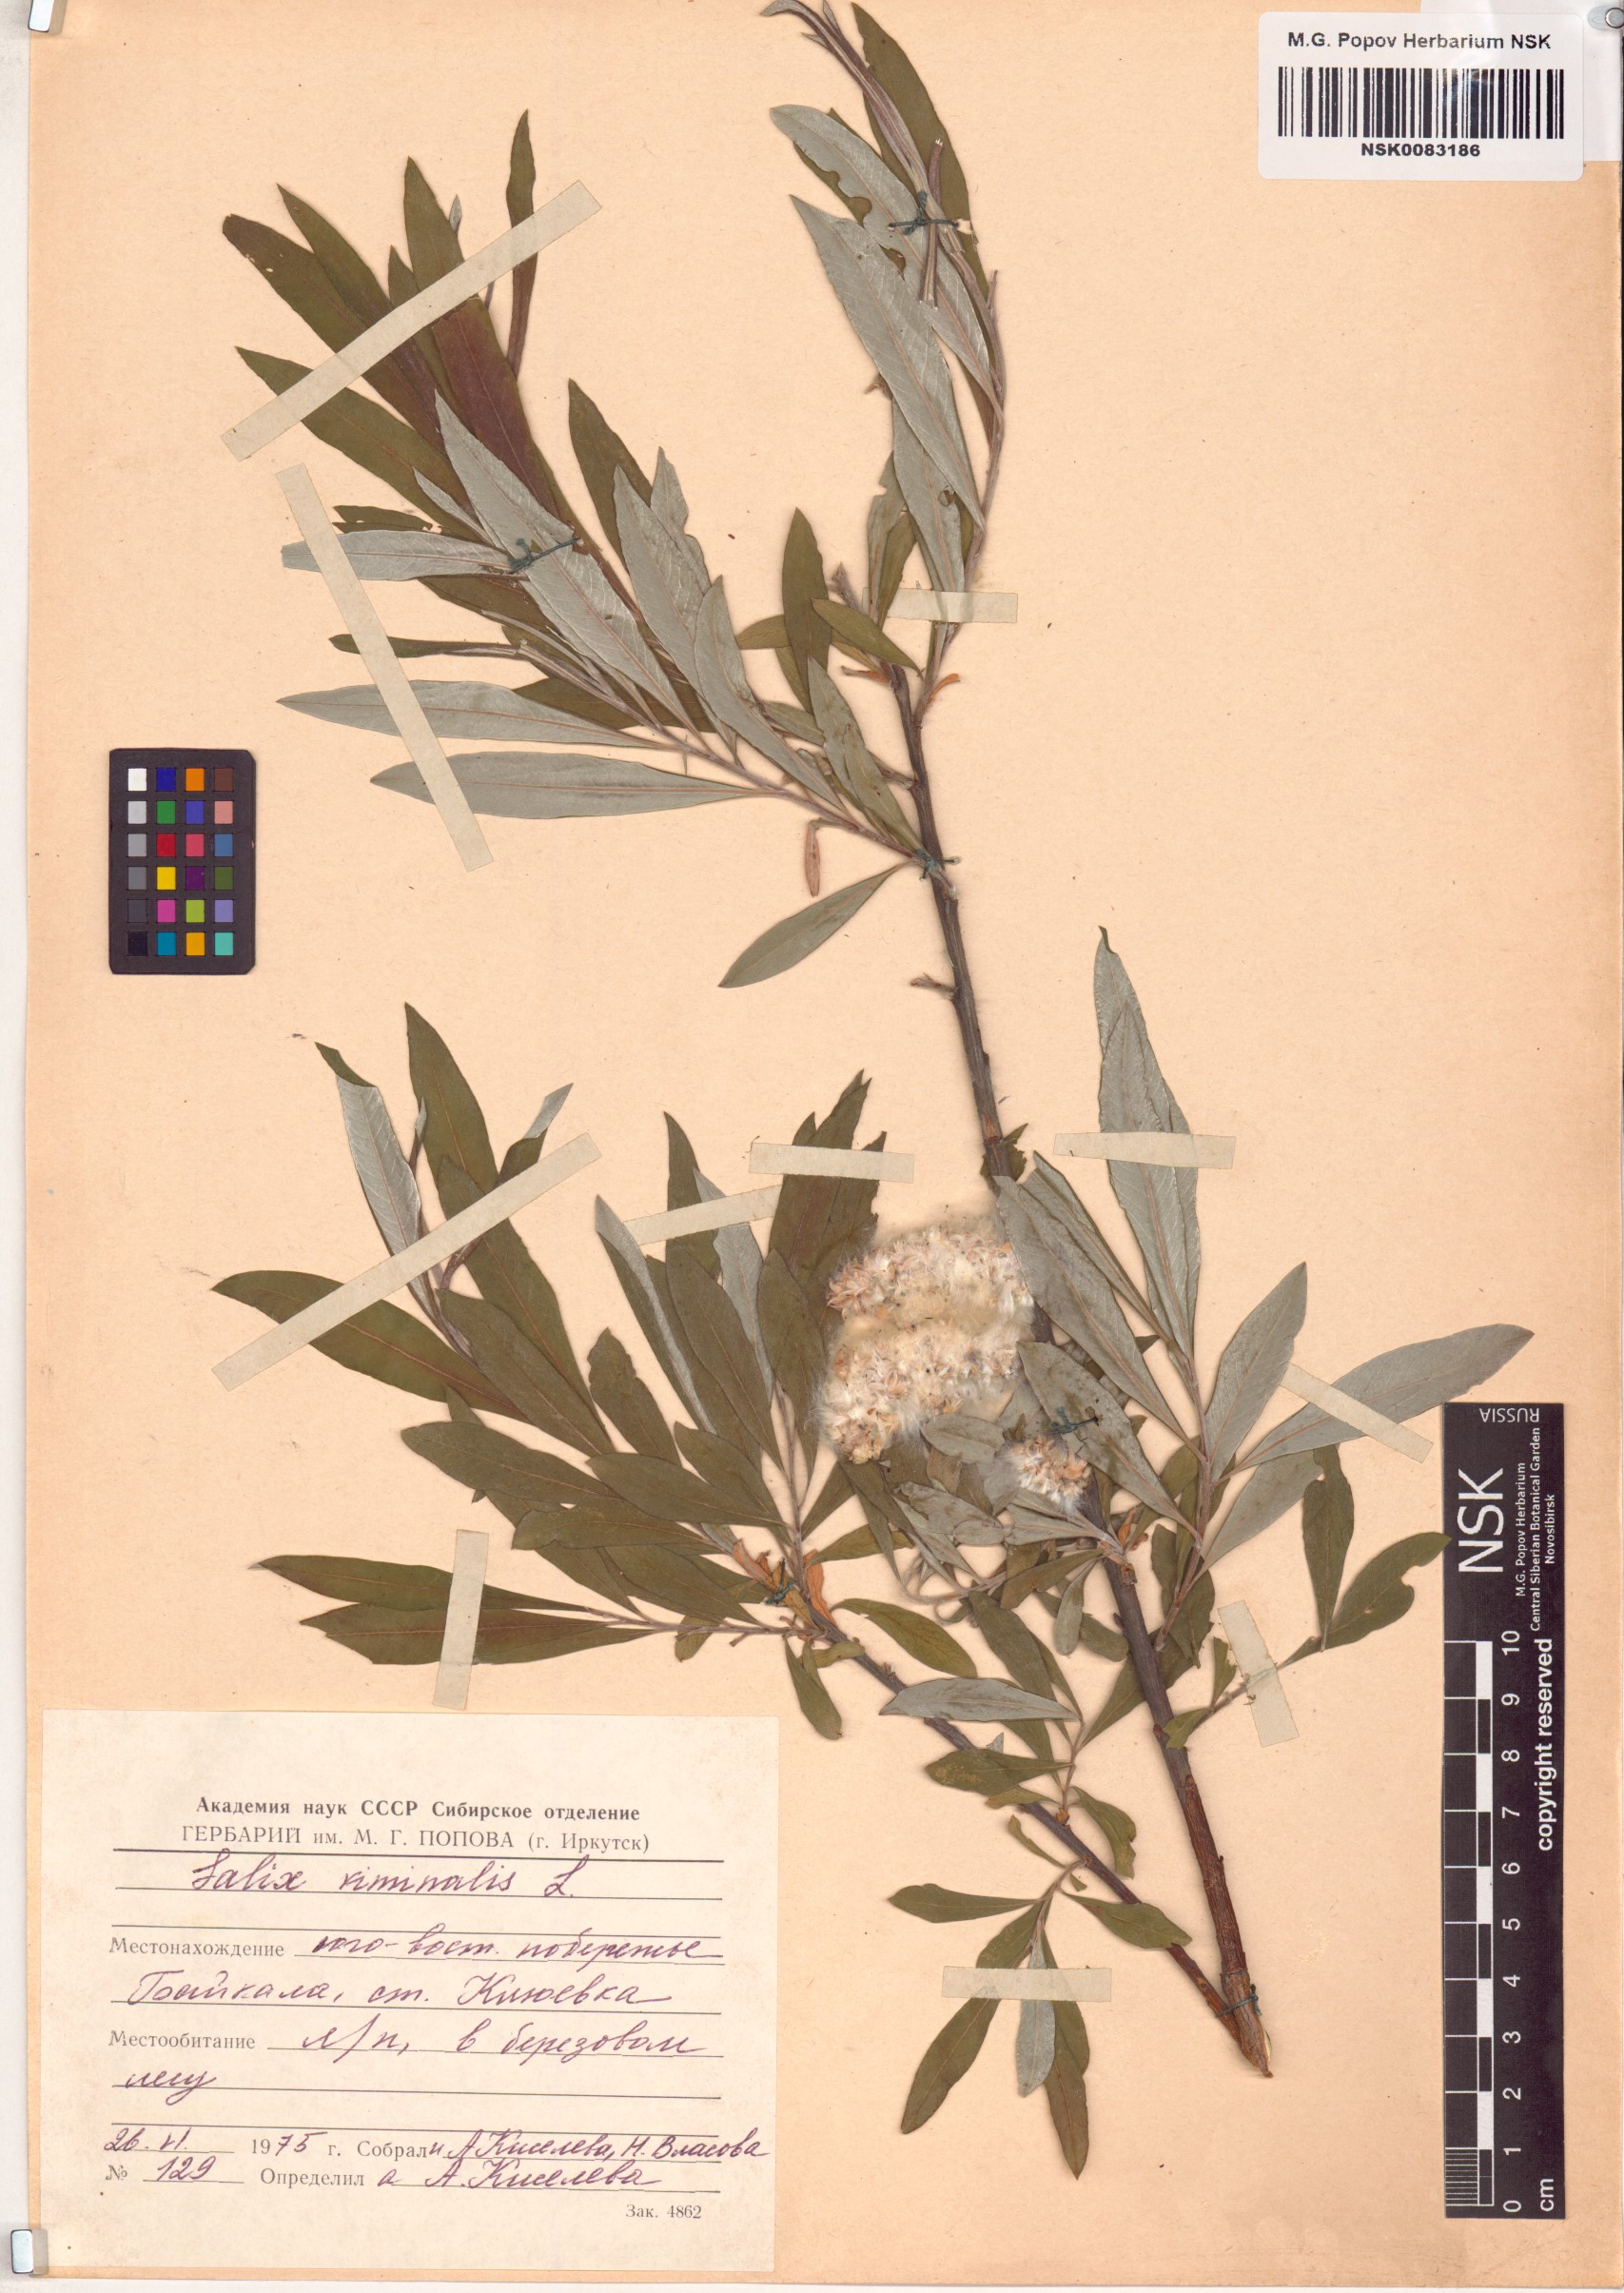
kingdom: Plantae
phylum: Tracheophyta
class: Magnoliopsida
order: Malpighiales
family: Salicaceae
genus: Salix
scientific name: Salix viminalis
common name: Osier
